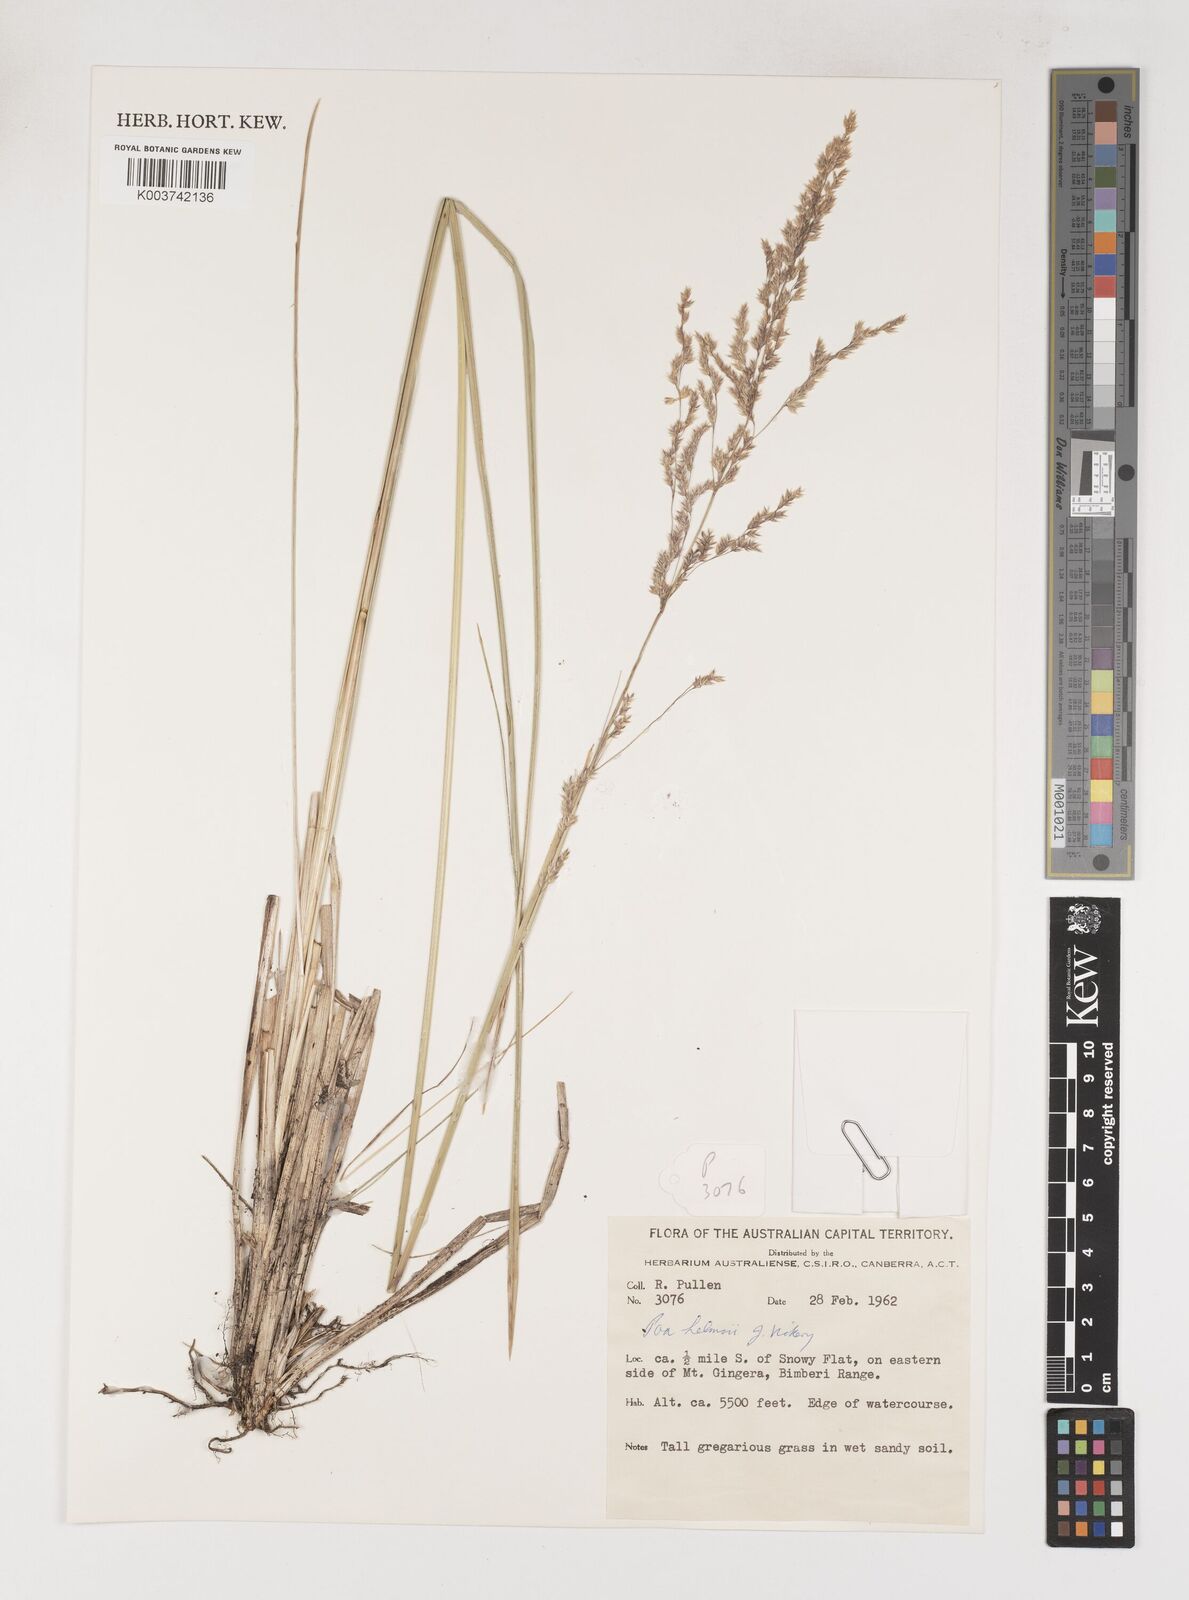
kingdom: Plantae
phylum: Tracheophyta
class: Liliopsida
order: Poales
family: Poaceae
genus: Poa
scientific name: Poa helmsii
